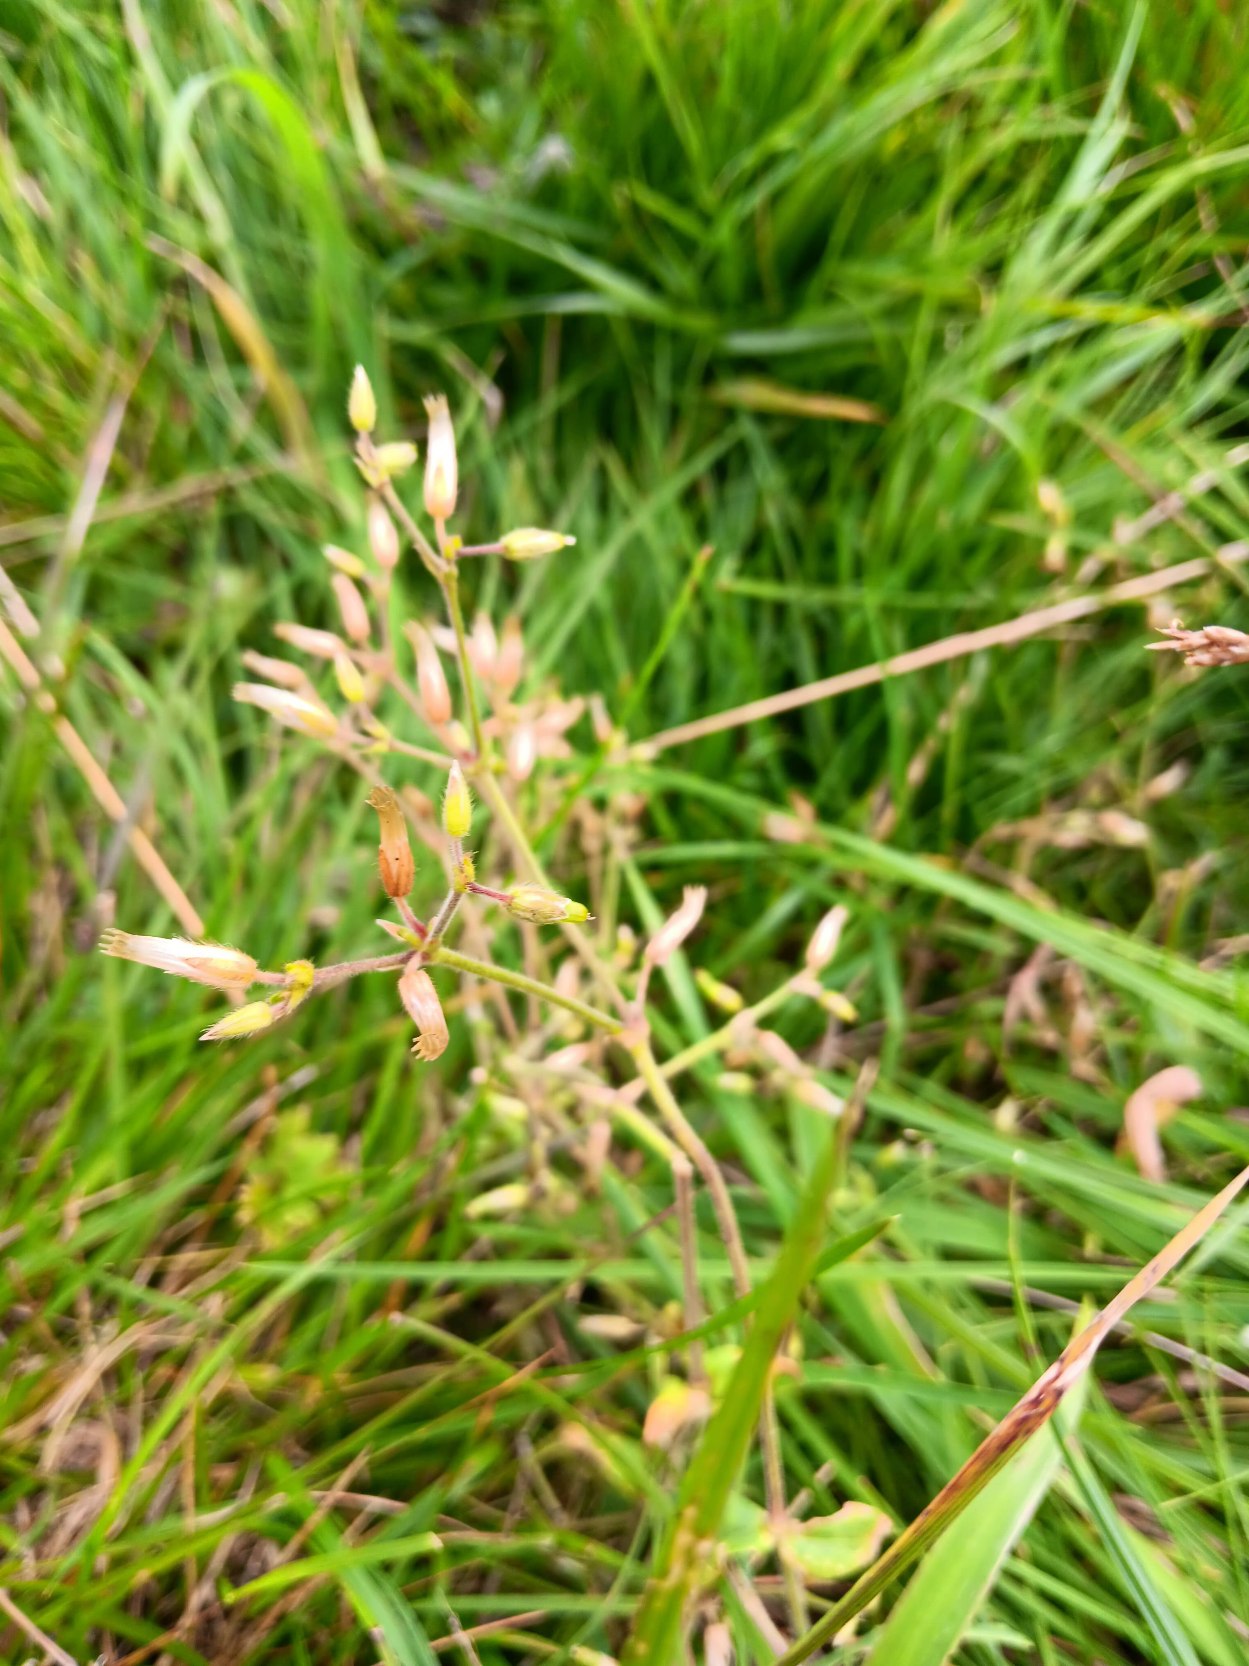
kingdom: Plantae
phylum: Tracheophyta
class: Magnoliopsida
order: Caryophyllales
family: Caryophyllaceae
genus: Cerastium
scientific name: Cerastium fontanum
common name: Almindelig hønsetarm
